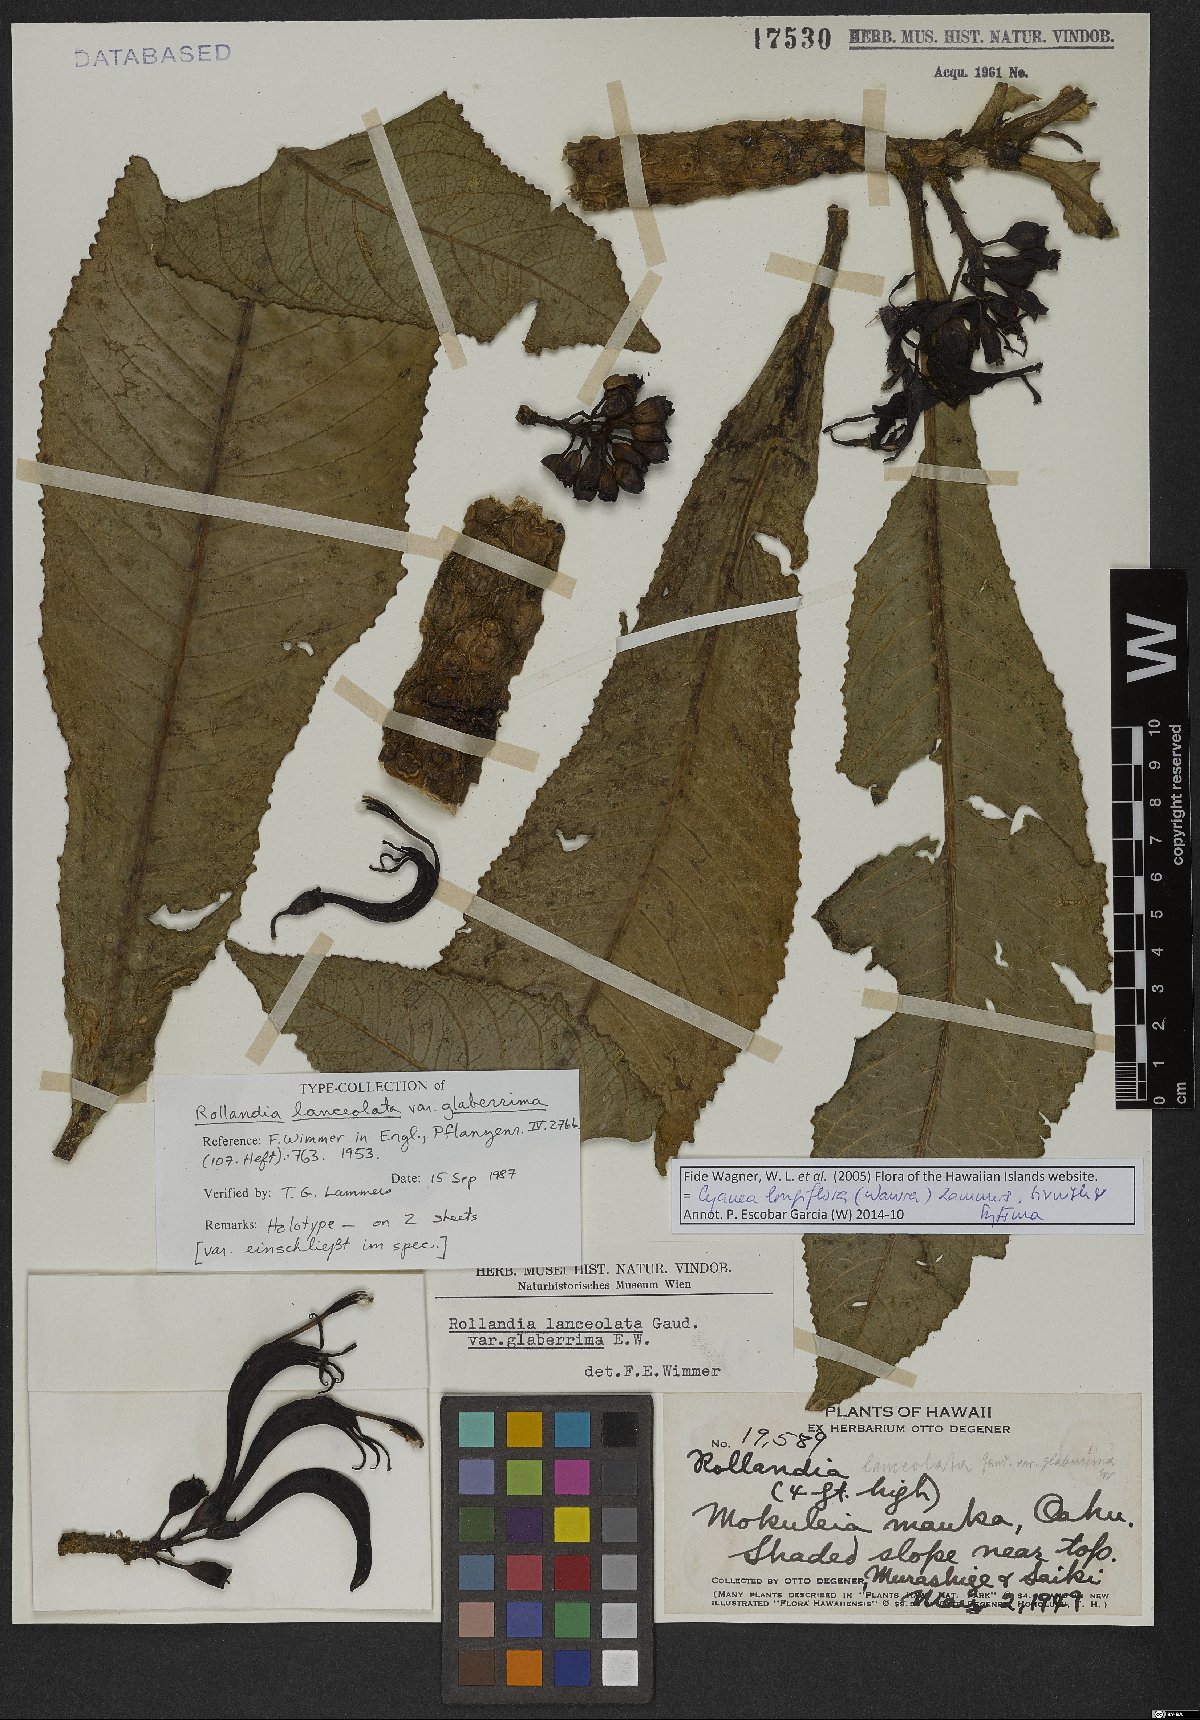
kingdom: Plantae
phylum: Tracheophyta
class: Magnoliopsida
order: Asterales
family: Campanulaceae
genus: Cyanea
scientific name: Cyanea longiflora
